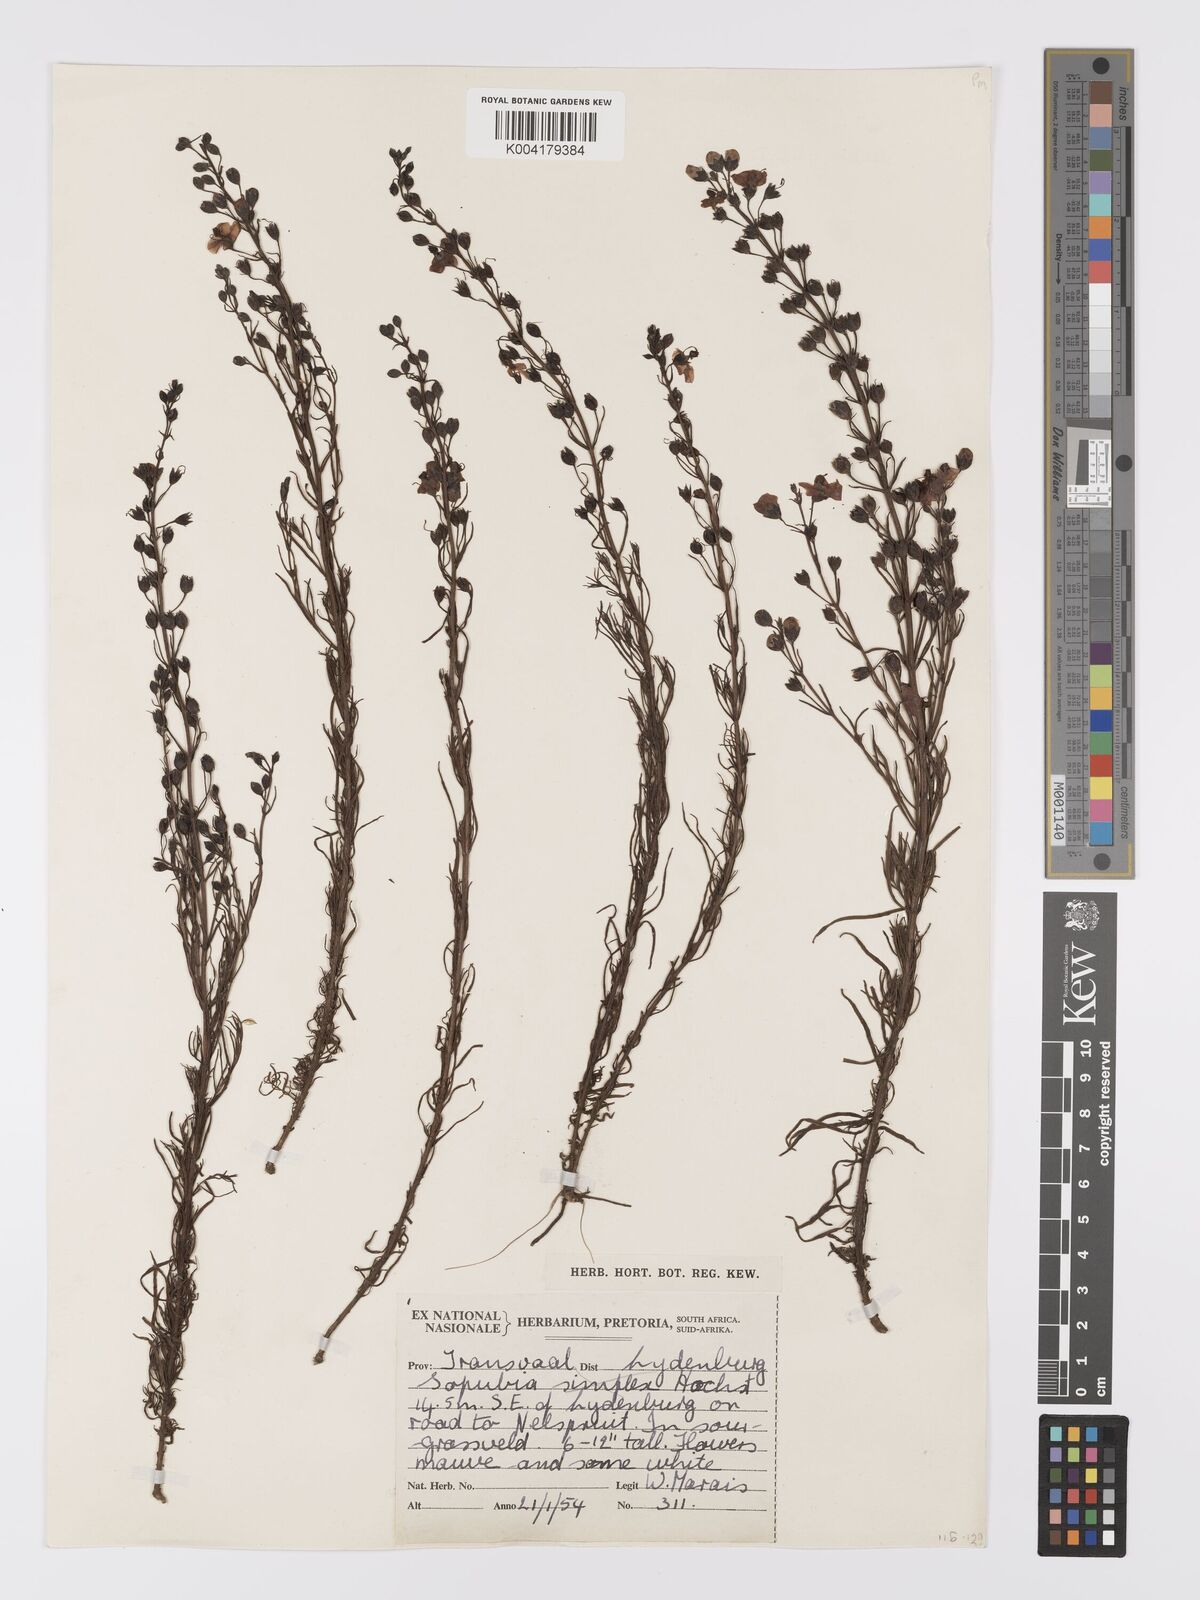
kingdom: Plantae
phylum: Tracheophyta
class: Magnoliopsida
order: Lamiales
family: Orobanchaceae
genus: Sopubia
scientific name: Sopubia simplex
